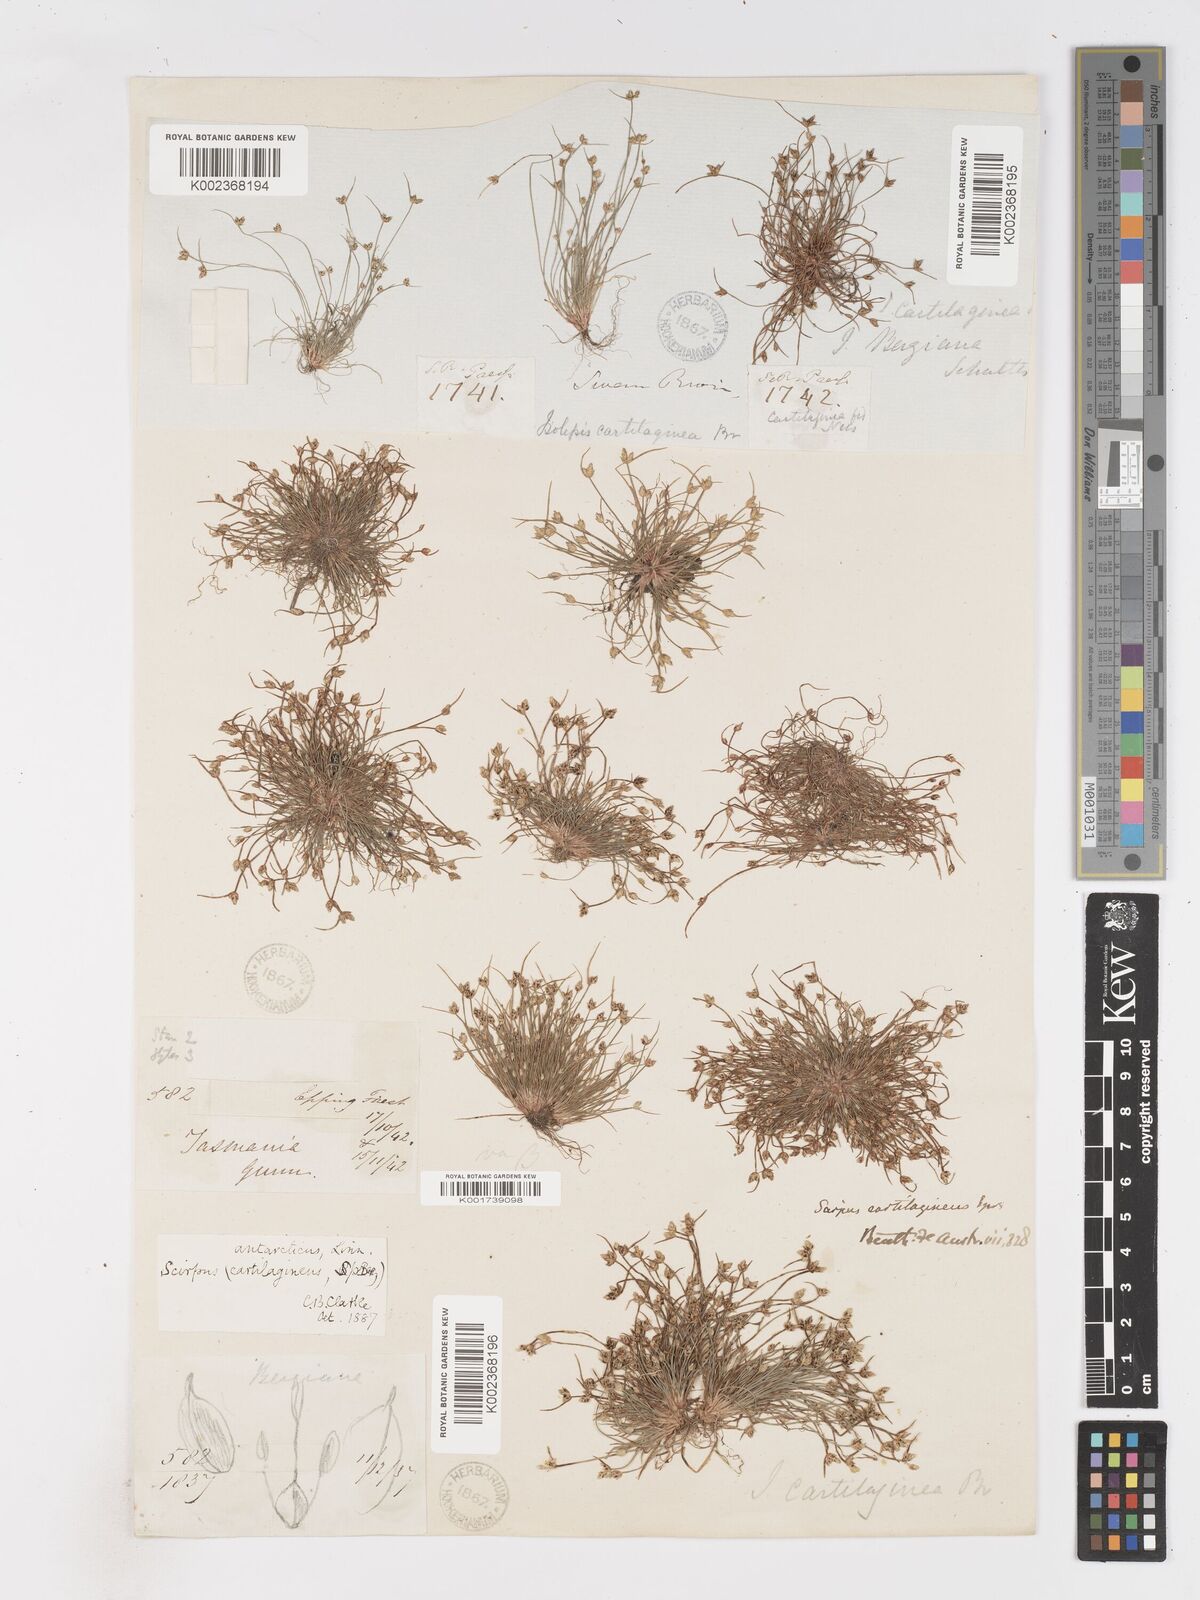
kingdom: Plantae
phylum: Tracheophyta
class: Liliopsida
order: Poales
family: Cyperaceae
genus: Isolepis
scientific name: Isolepis antarctica
